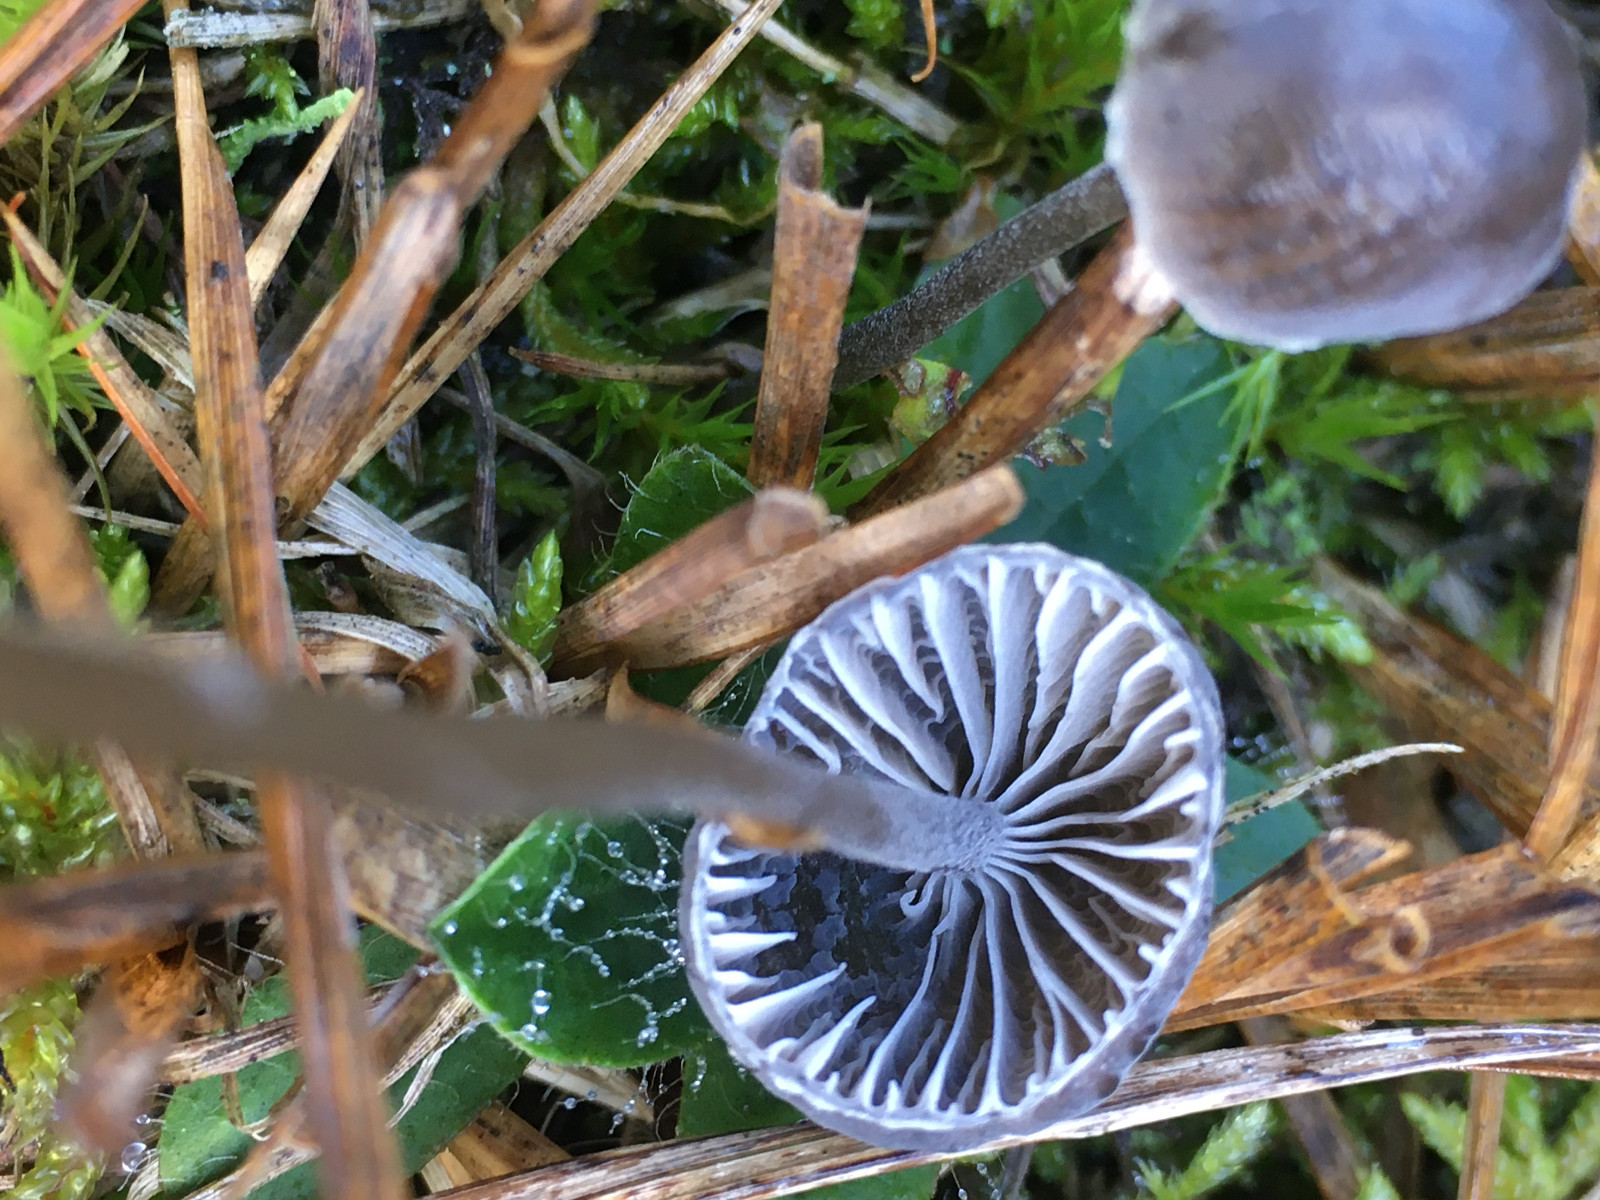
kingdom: Fungi
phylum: Basidiomycota
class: Agaricomycetes
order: Agaricales
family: Mycenaceae
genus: Mycena
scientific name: Mycena
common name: huesvamp
